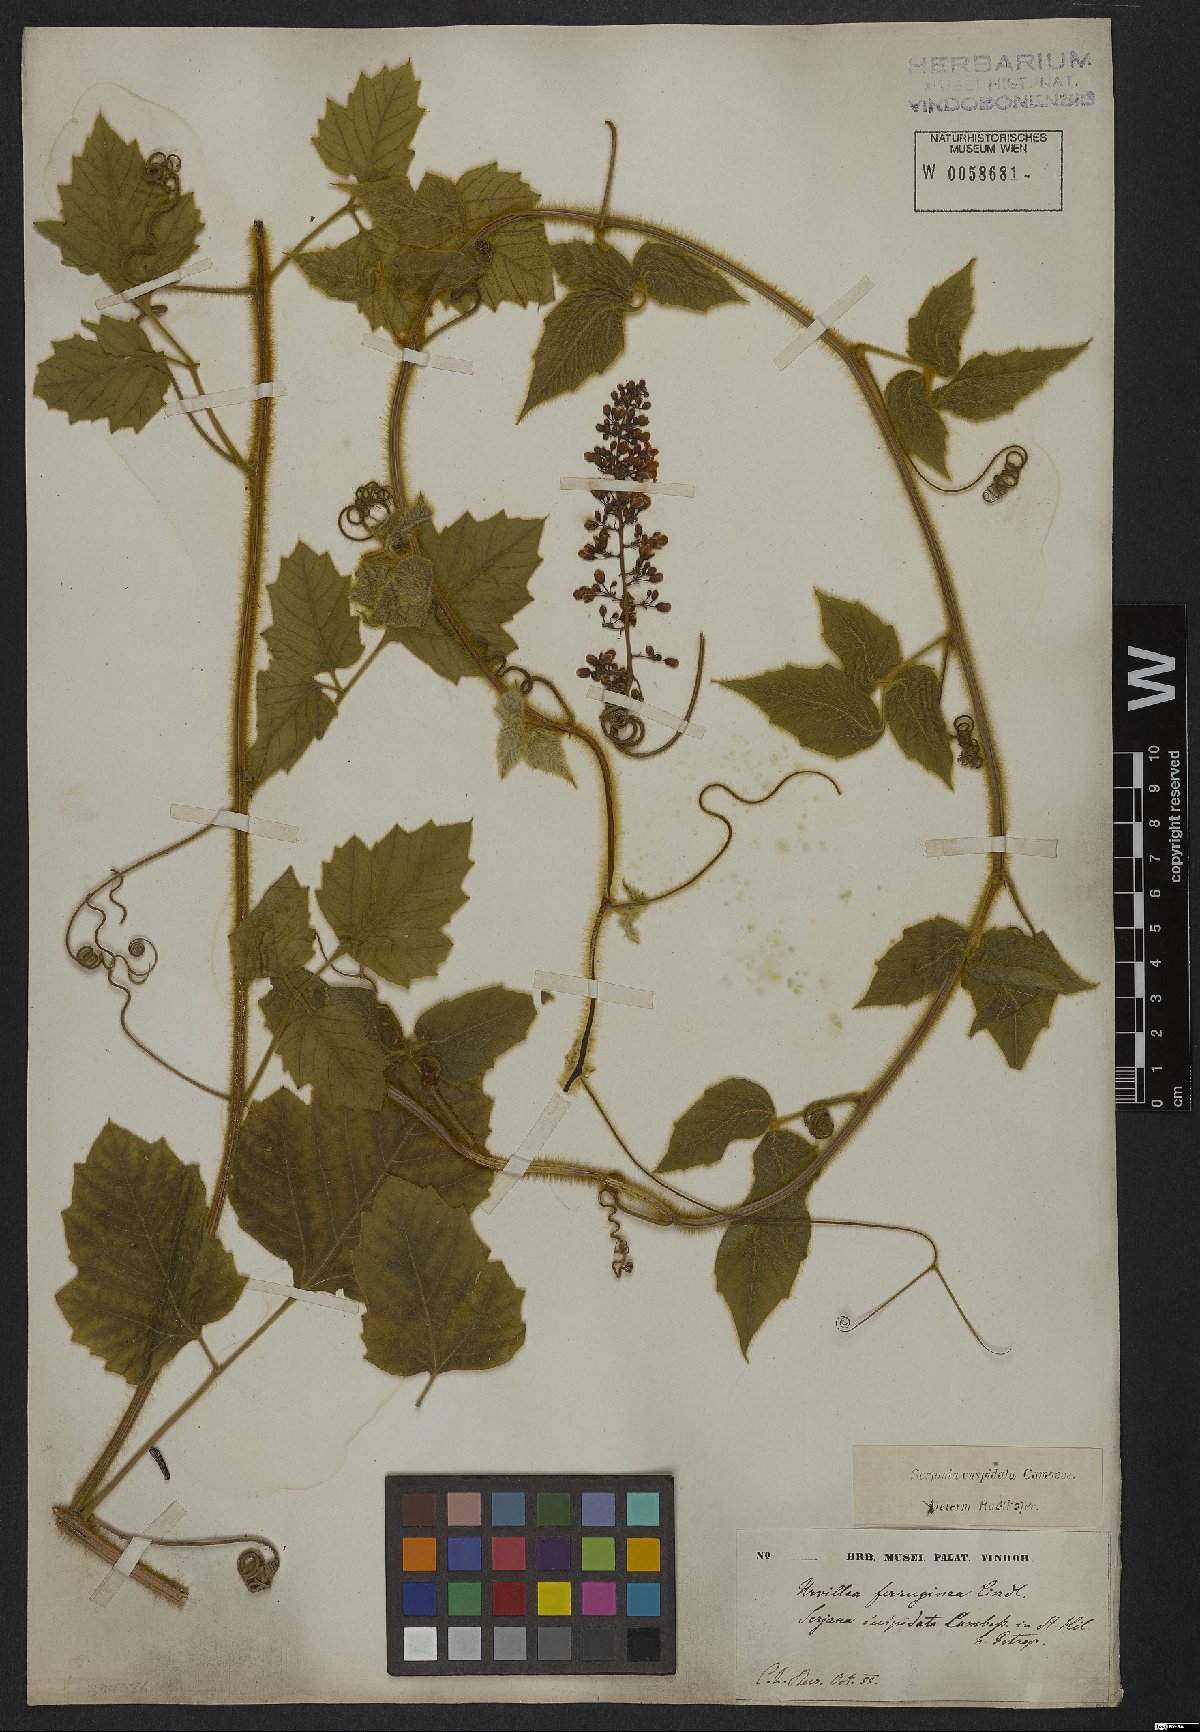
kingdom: Plantae
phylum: Tracheophyta
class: Magnoliopsida
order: Sapindales
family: Sapindaceae
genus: Serjania
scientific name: Serjania ferruginea
